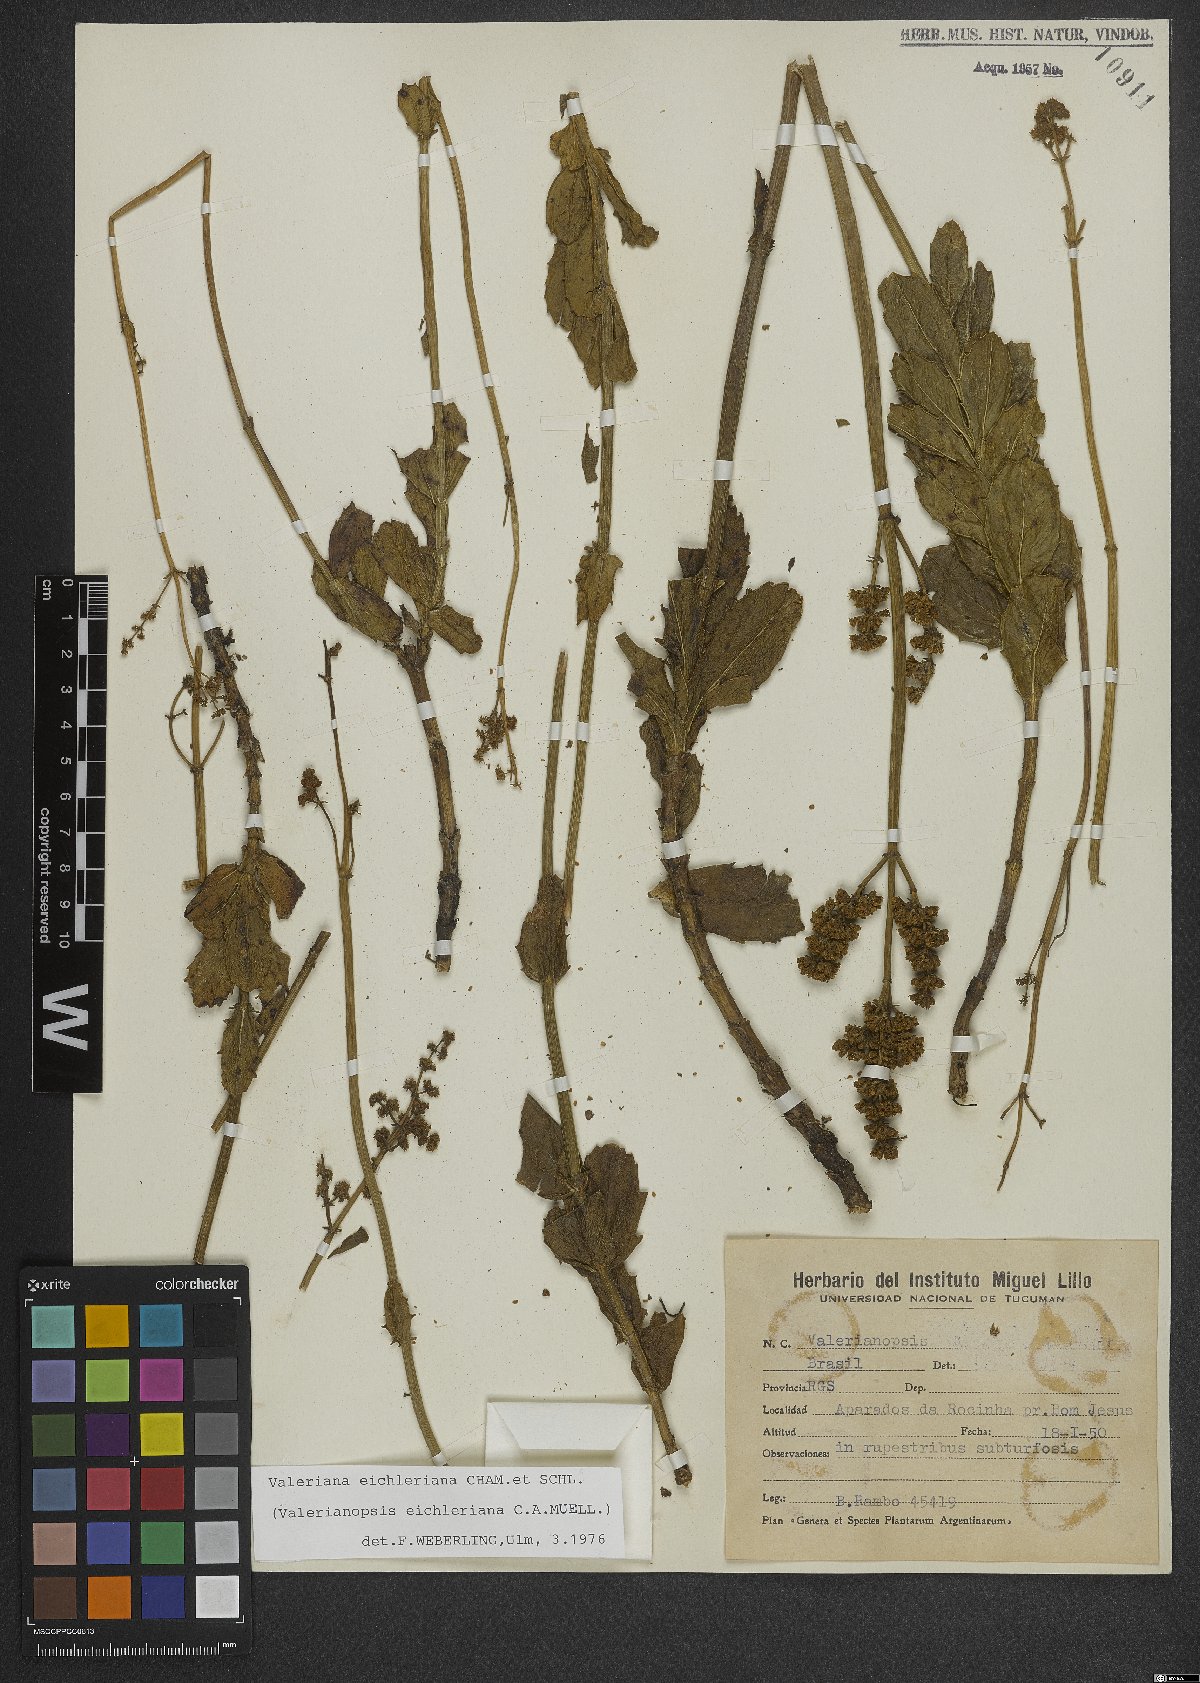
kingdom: Plantae
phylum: Tracheophyta
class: Magnoliopsida
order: Dipsacales
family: Caprifoliaceae
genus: Valeriana
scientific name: Valeriana eichleriana
